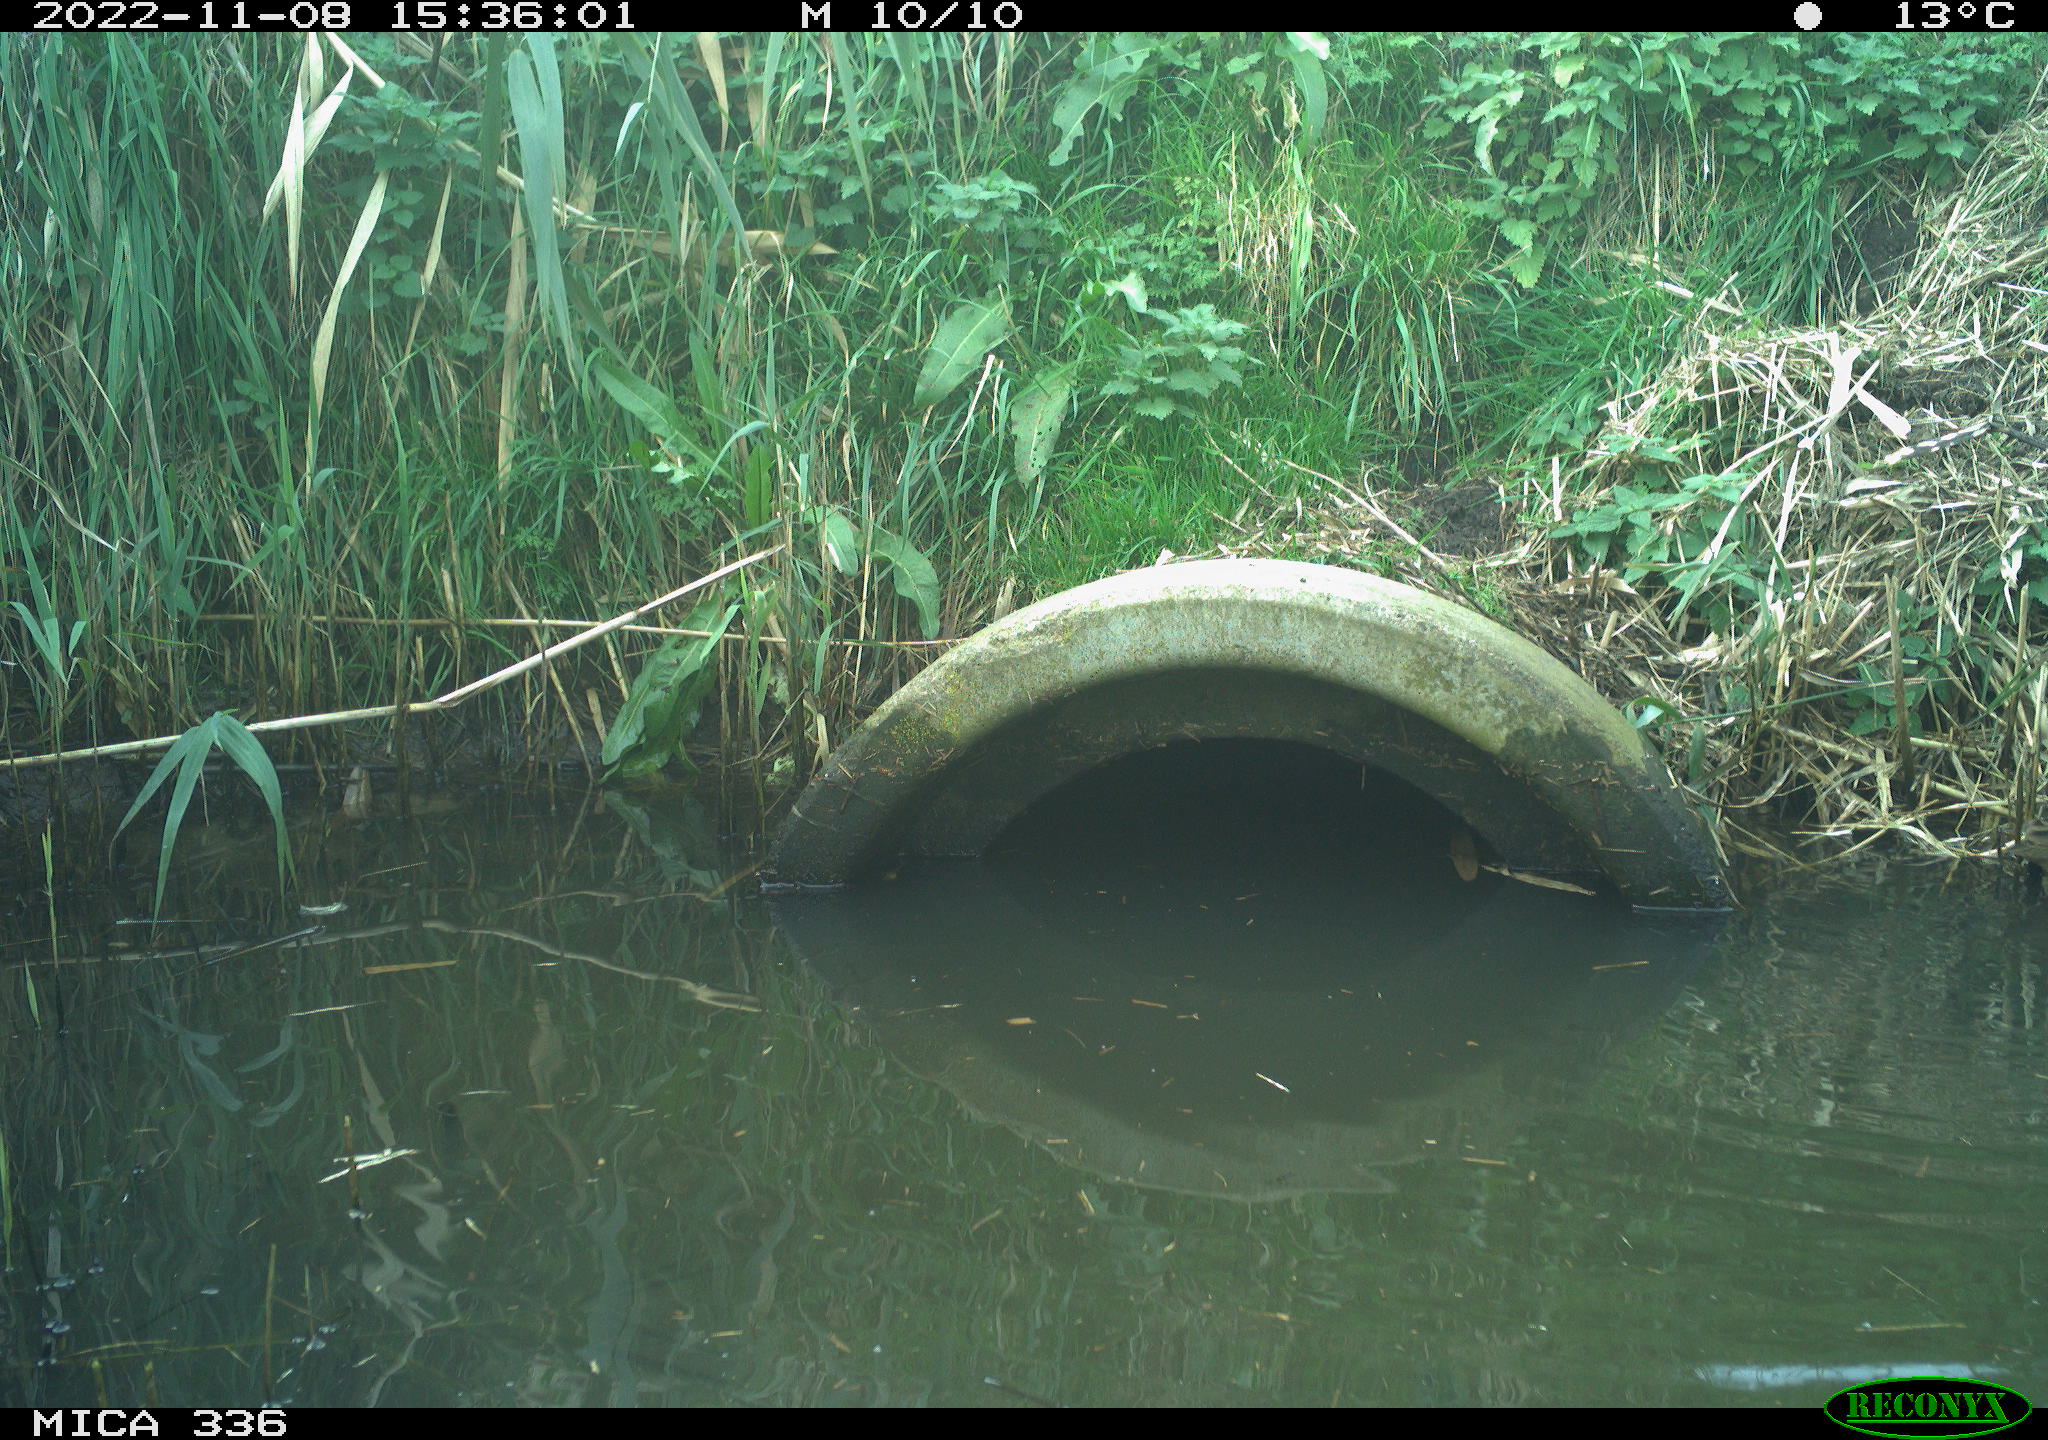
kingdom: Animalia
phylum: Chordata
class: Aves
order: Gruiformes
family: Rallidae
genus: Rallus
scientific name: Rallus aquaticus
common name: Water rail
